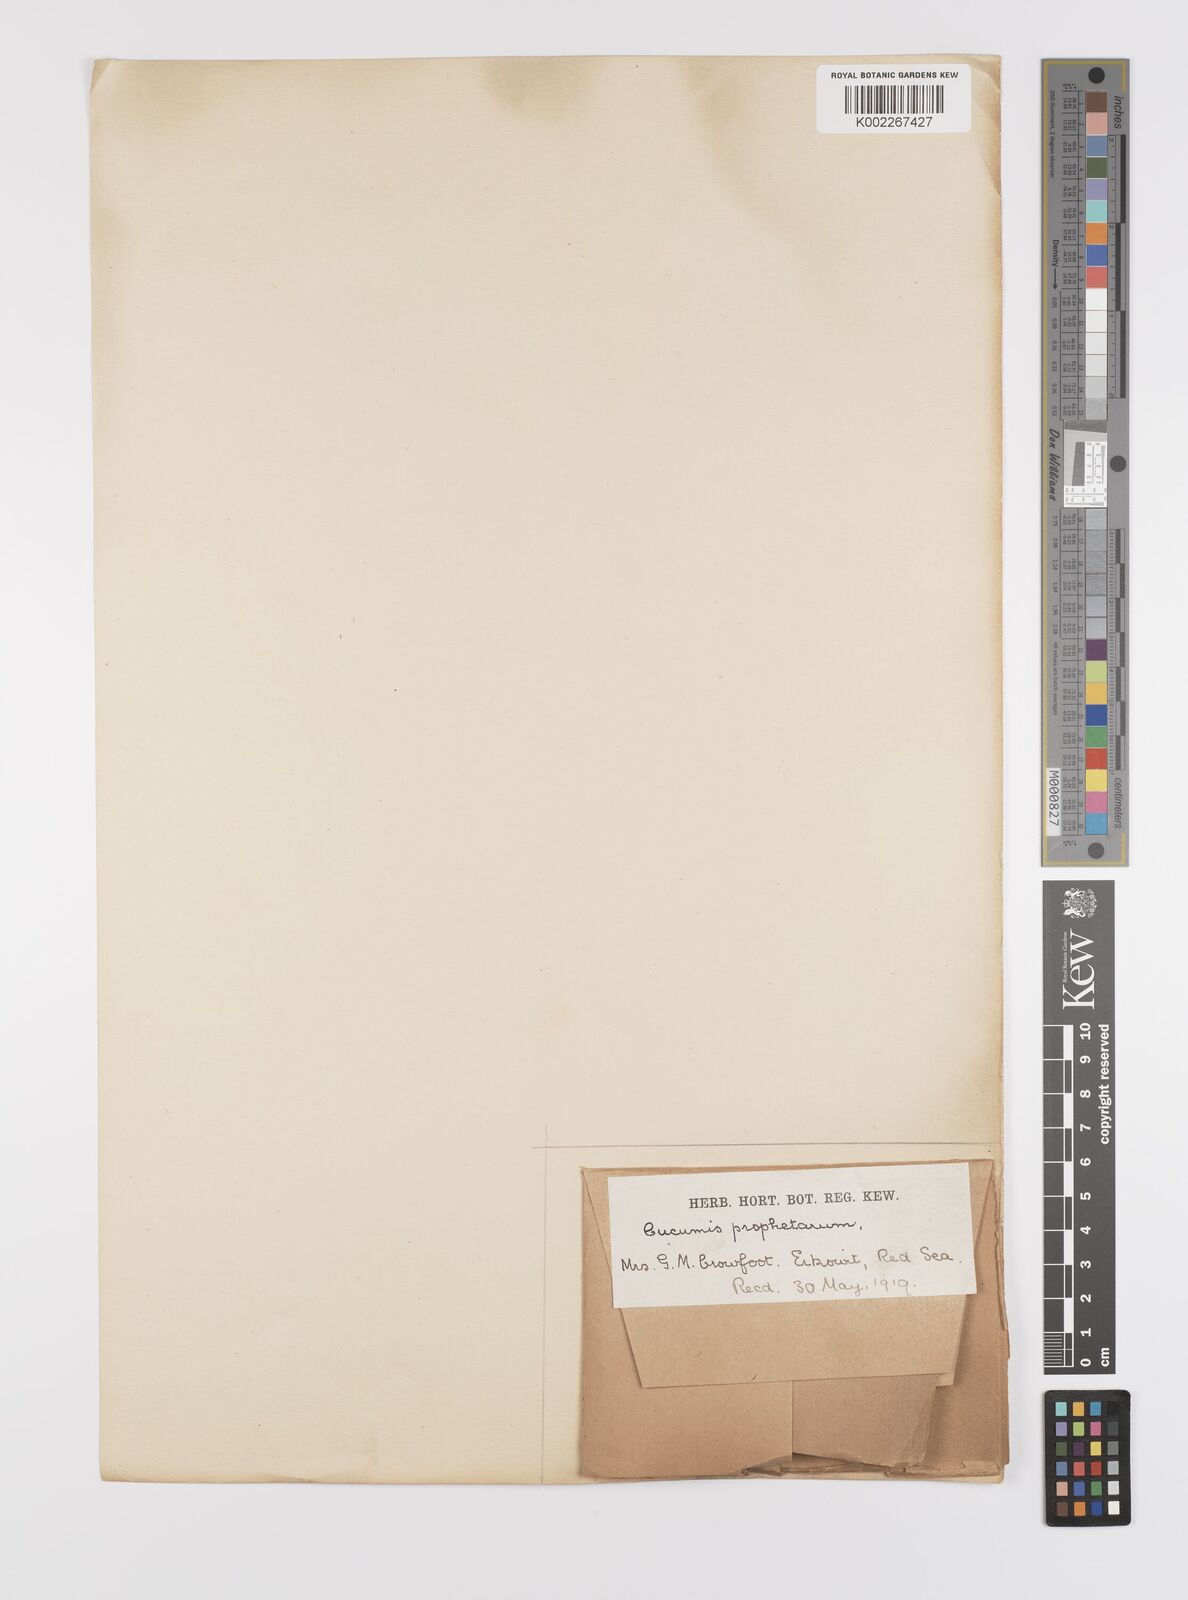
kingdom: Plantae
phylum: Tracheophyta
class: Magnoliopsida
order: Cucurbitales
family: Cucurbitaceae
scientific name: Cucurbitaceae
